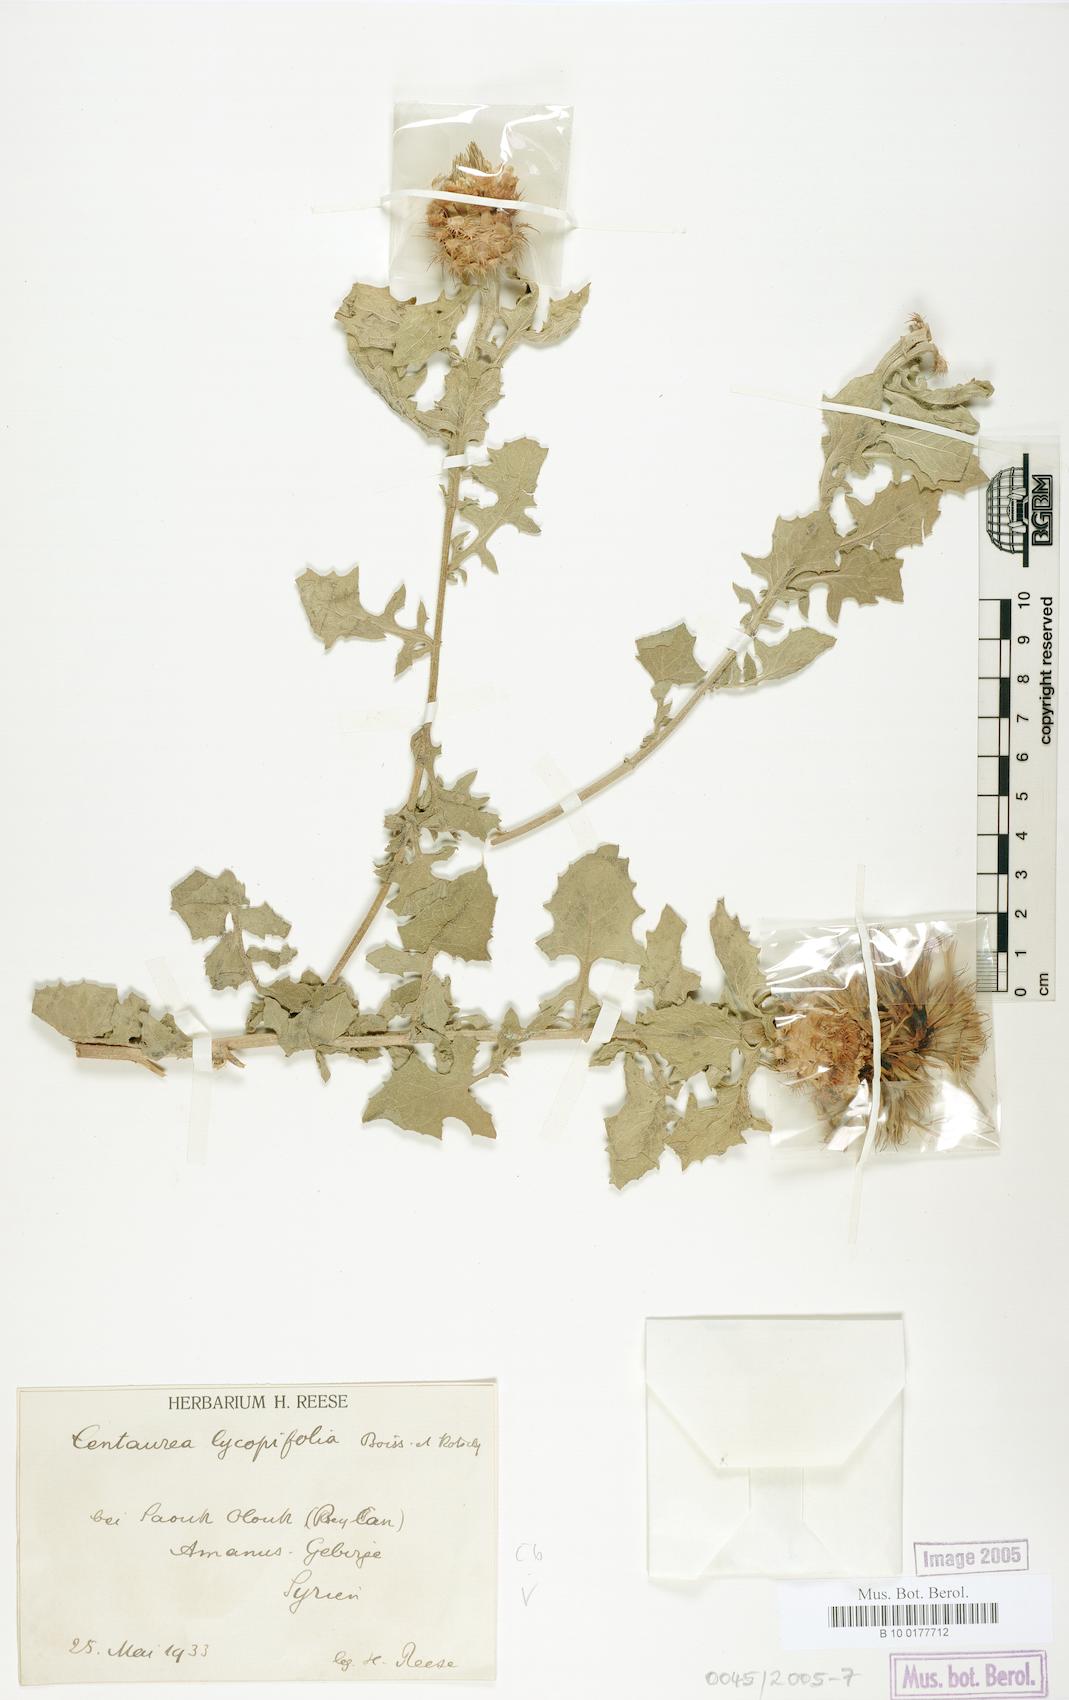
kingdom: Plantae
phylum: Tracheophyta
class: Magnoliopsida
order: Asterales
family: Asteraceae
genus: Centaurea
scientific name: Centaurea lycopifolia
